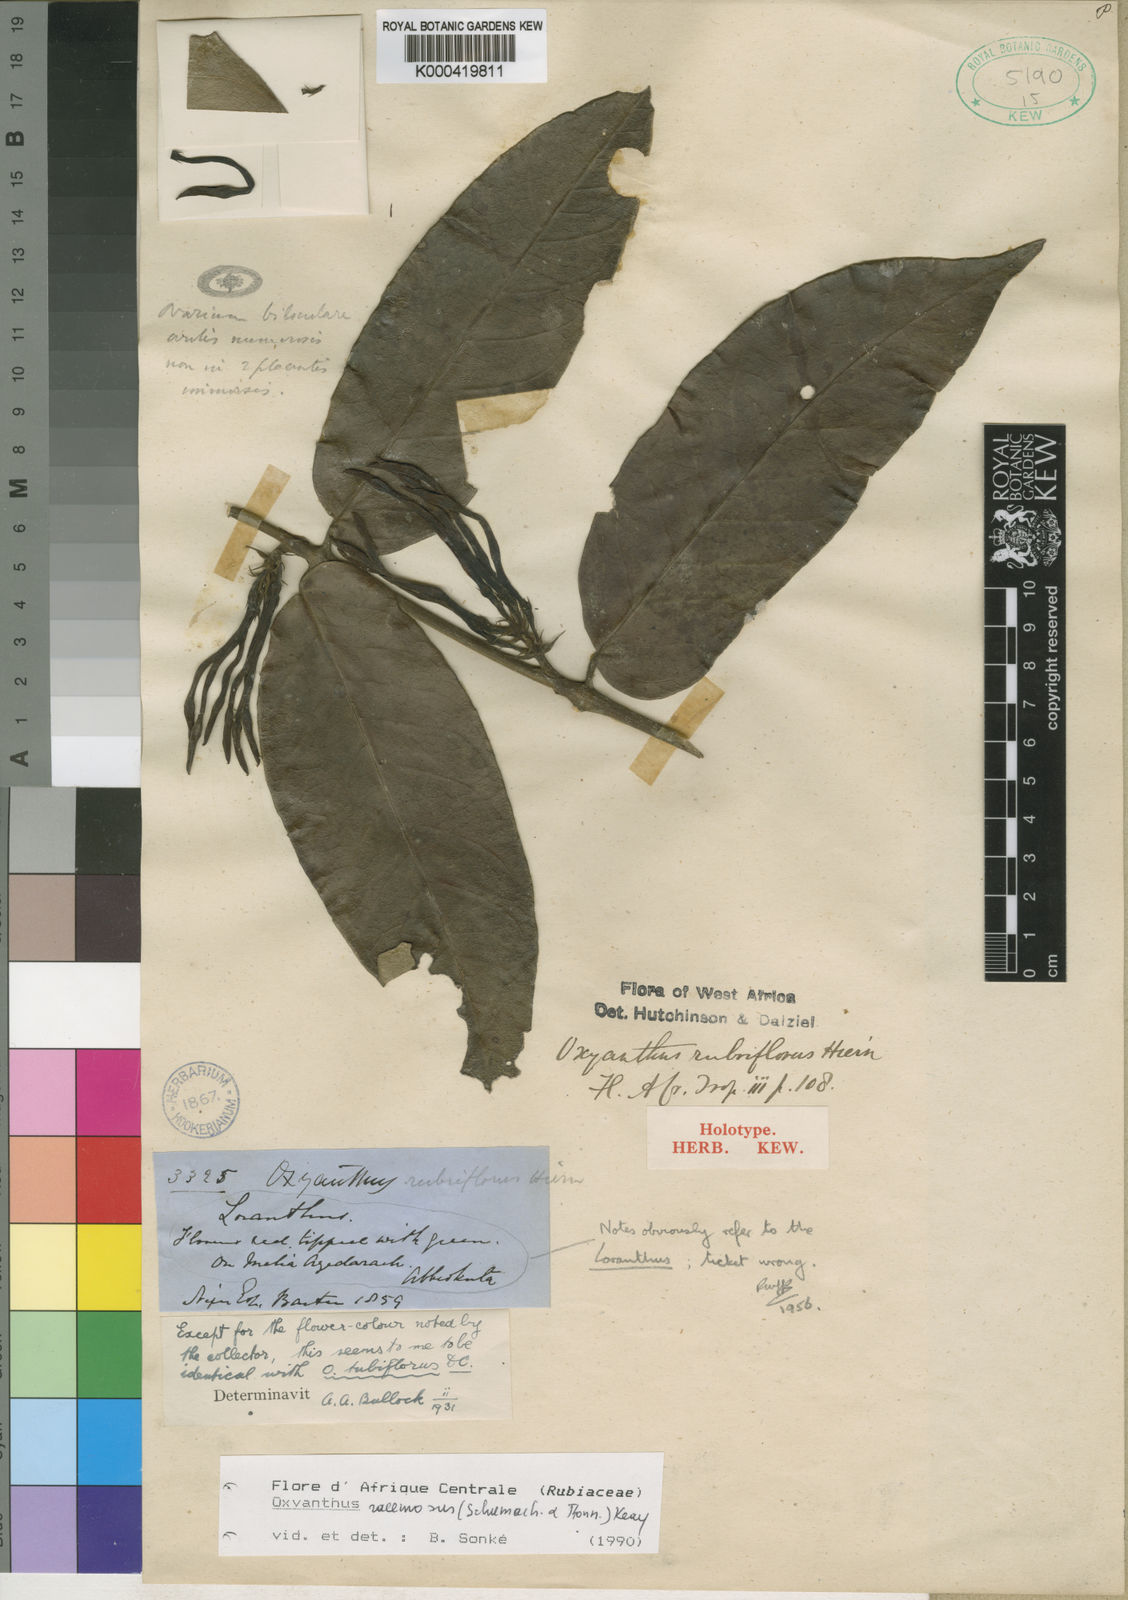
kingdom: Plantae
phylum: Tracheophyta
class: Magnoliopsida
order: Gentianales
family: Rubiaceae
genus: Oxyanthus
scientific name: Oxyanthus racemosus
